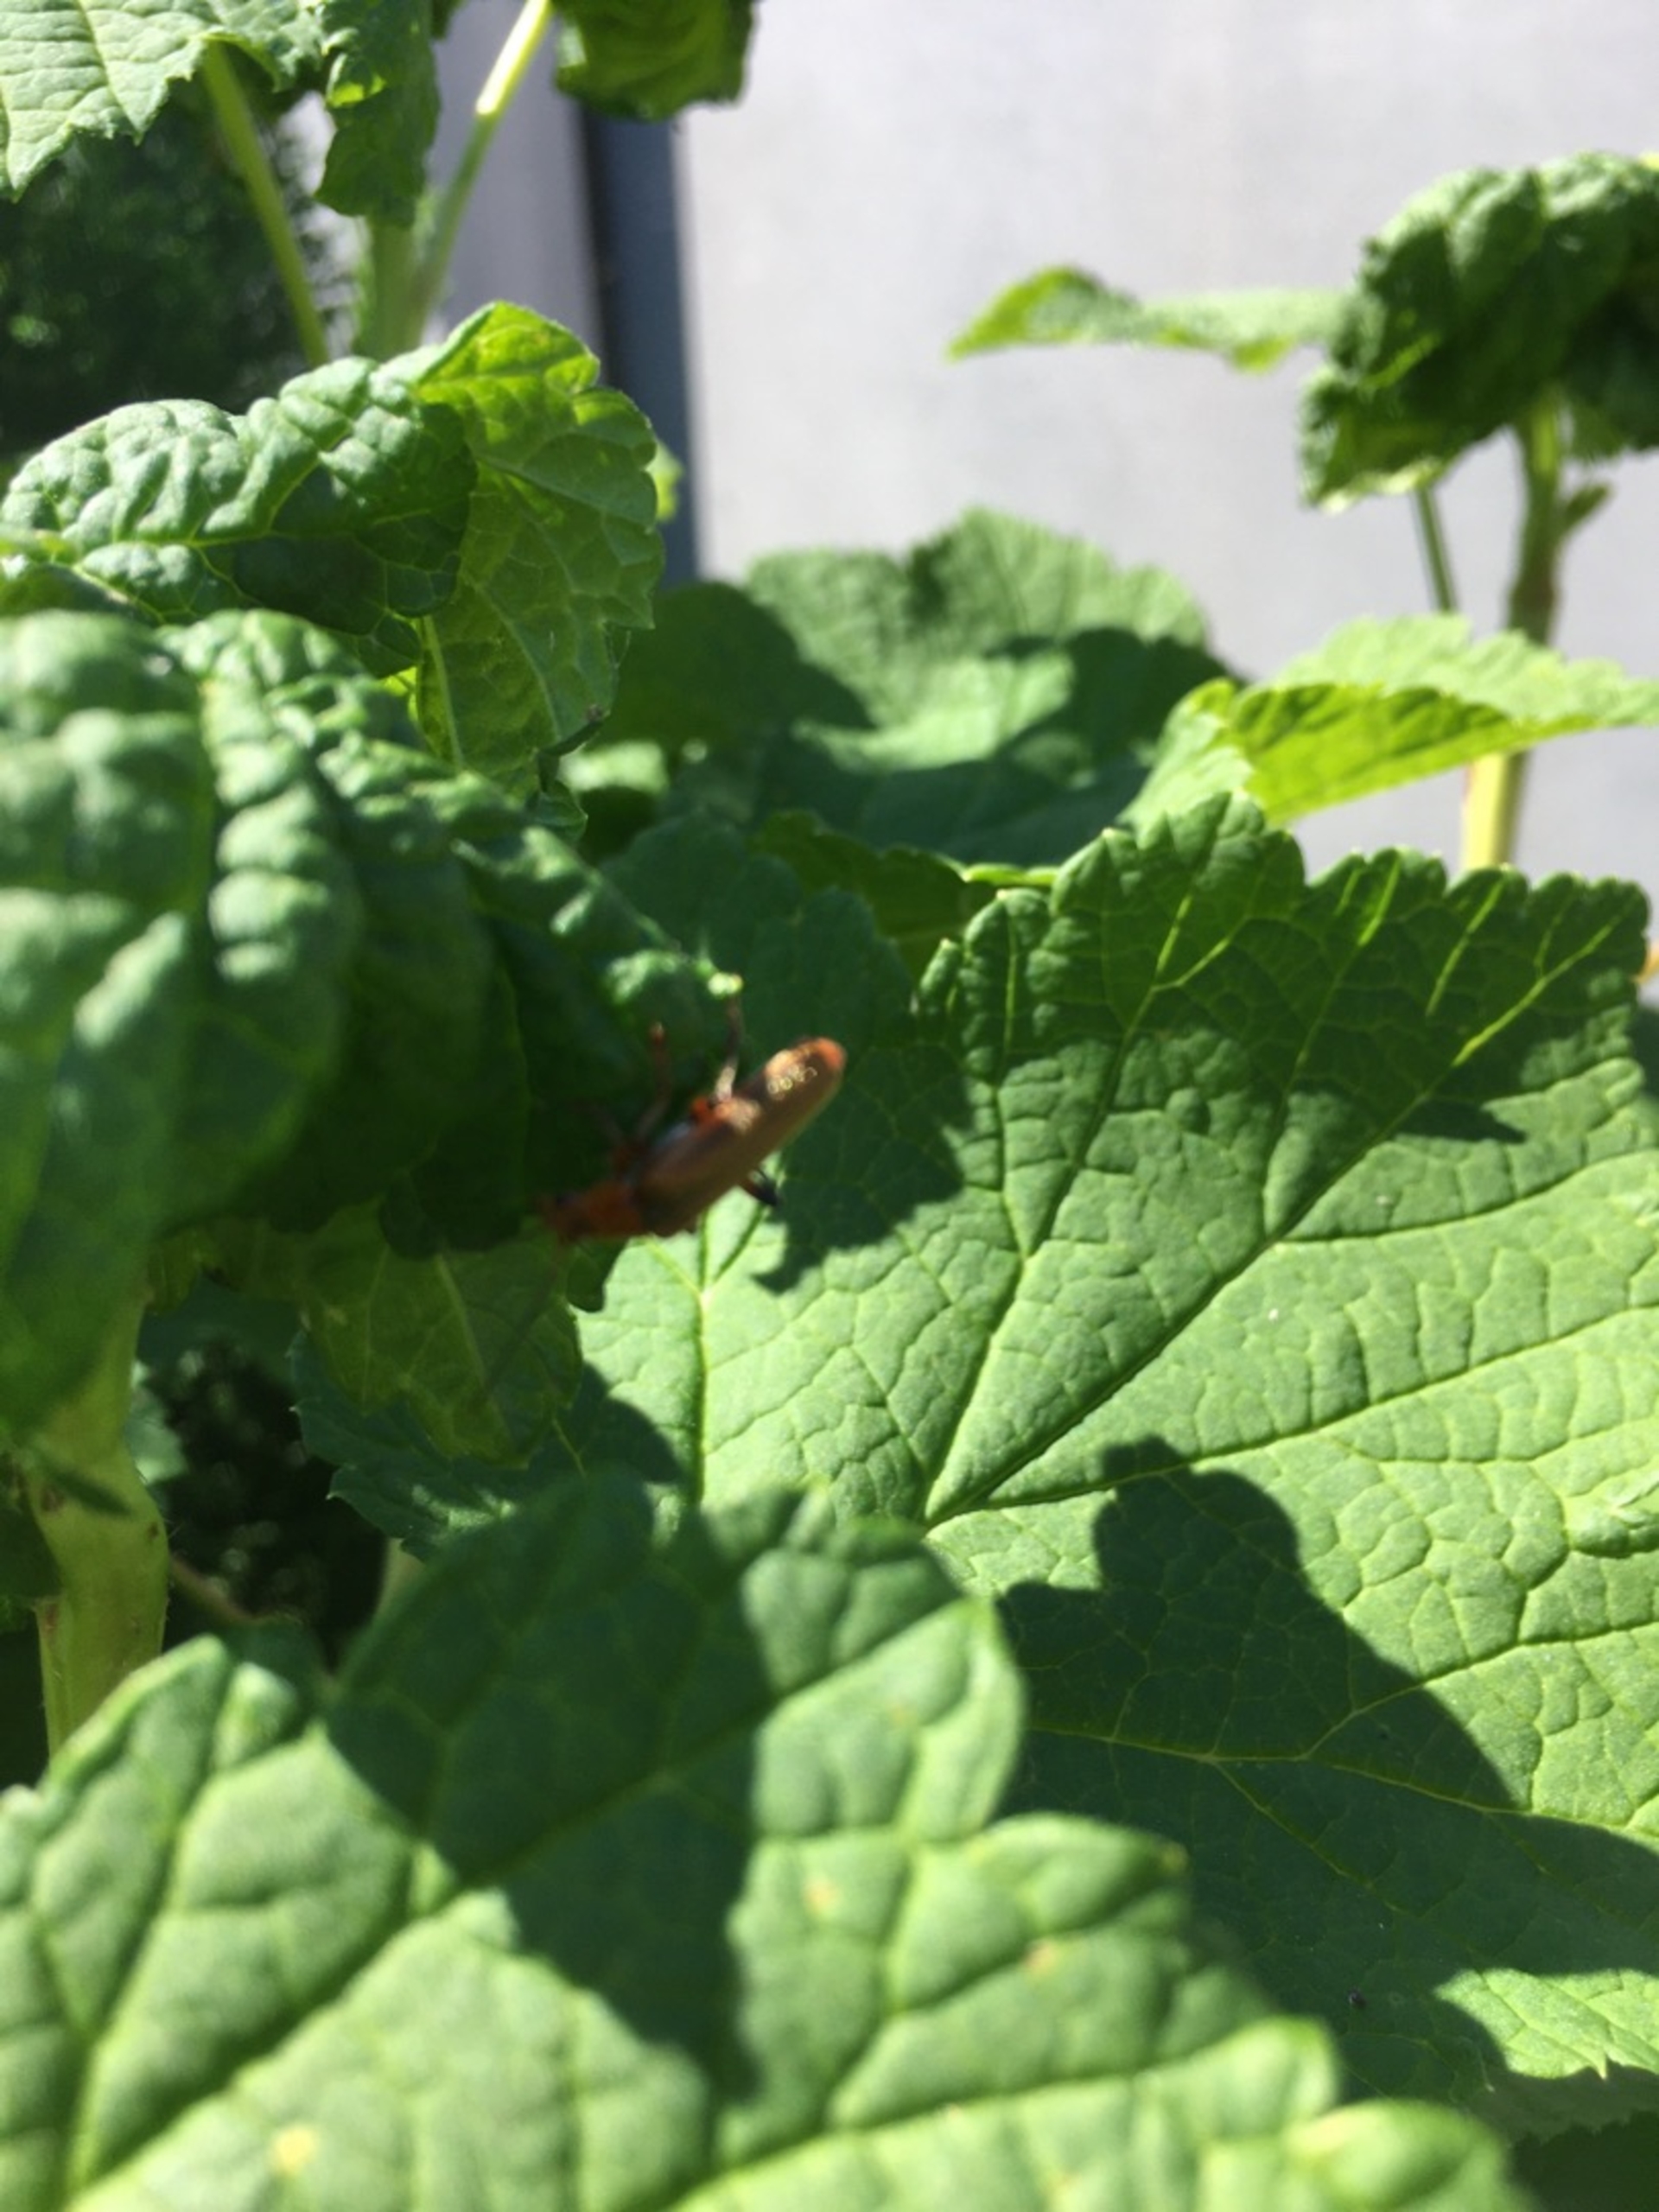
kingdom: Animalia
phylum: Arthropoda
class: Insecta
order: Coleoptera
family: Cantharidae
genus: Cantharis
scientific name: Cantharis livida
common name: Gul blødvinge
